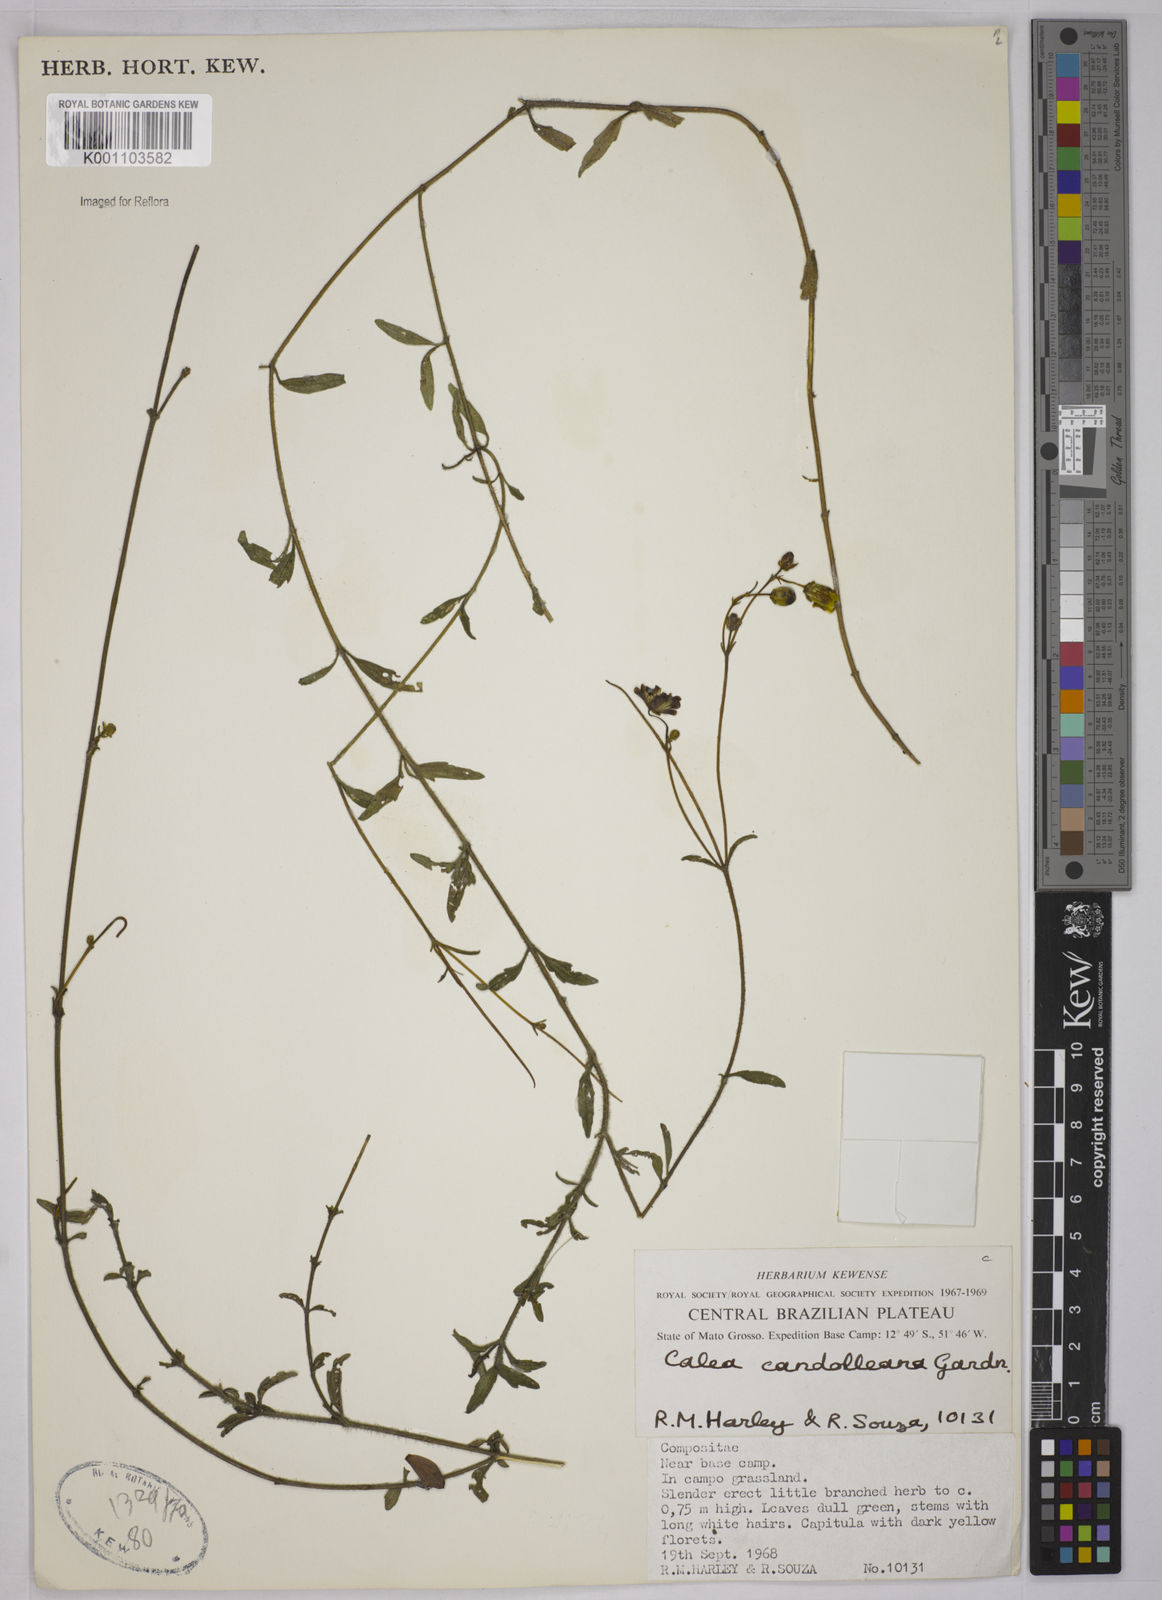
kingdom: Plantae
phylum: Tracheophyta
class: Magnoliopsida
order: Asterales
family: Asteraceae
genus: Calea
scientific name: Calea candolleana
